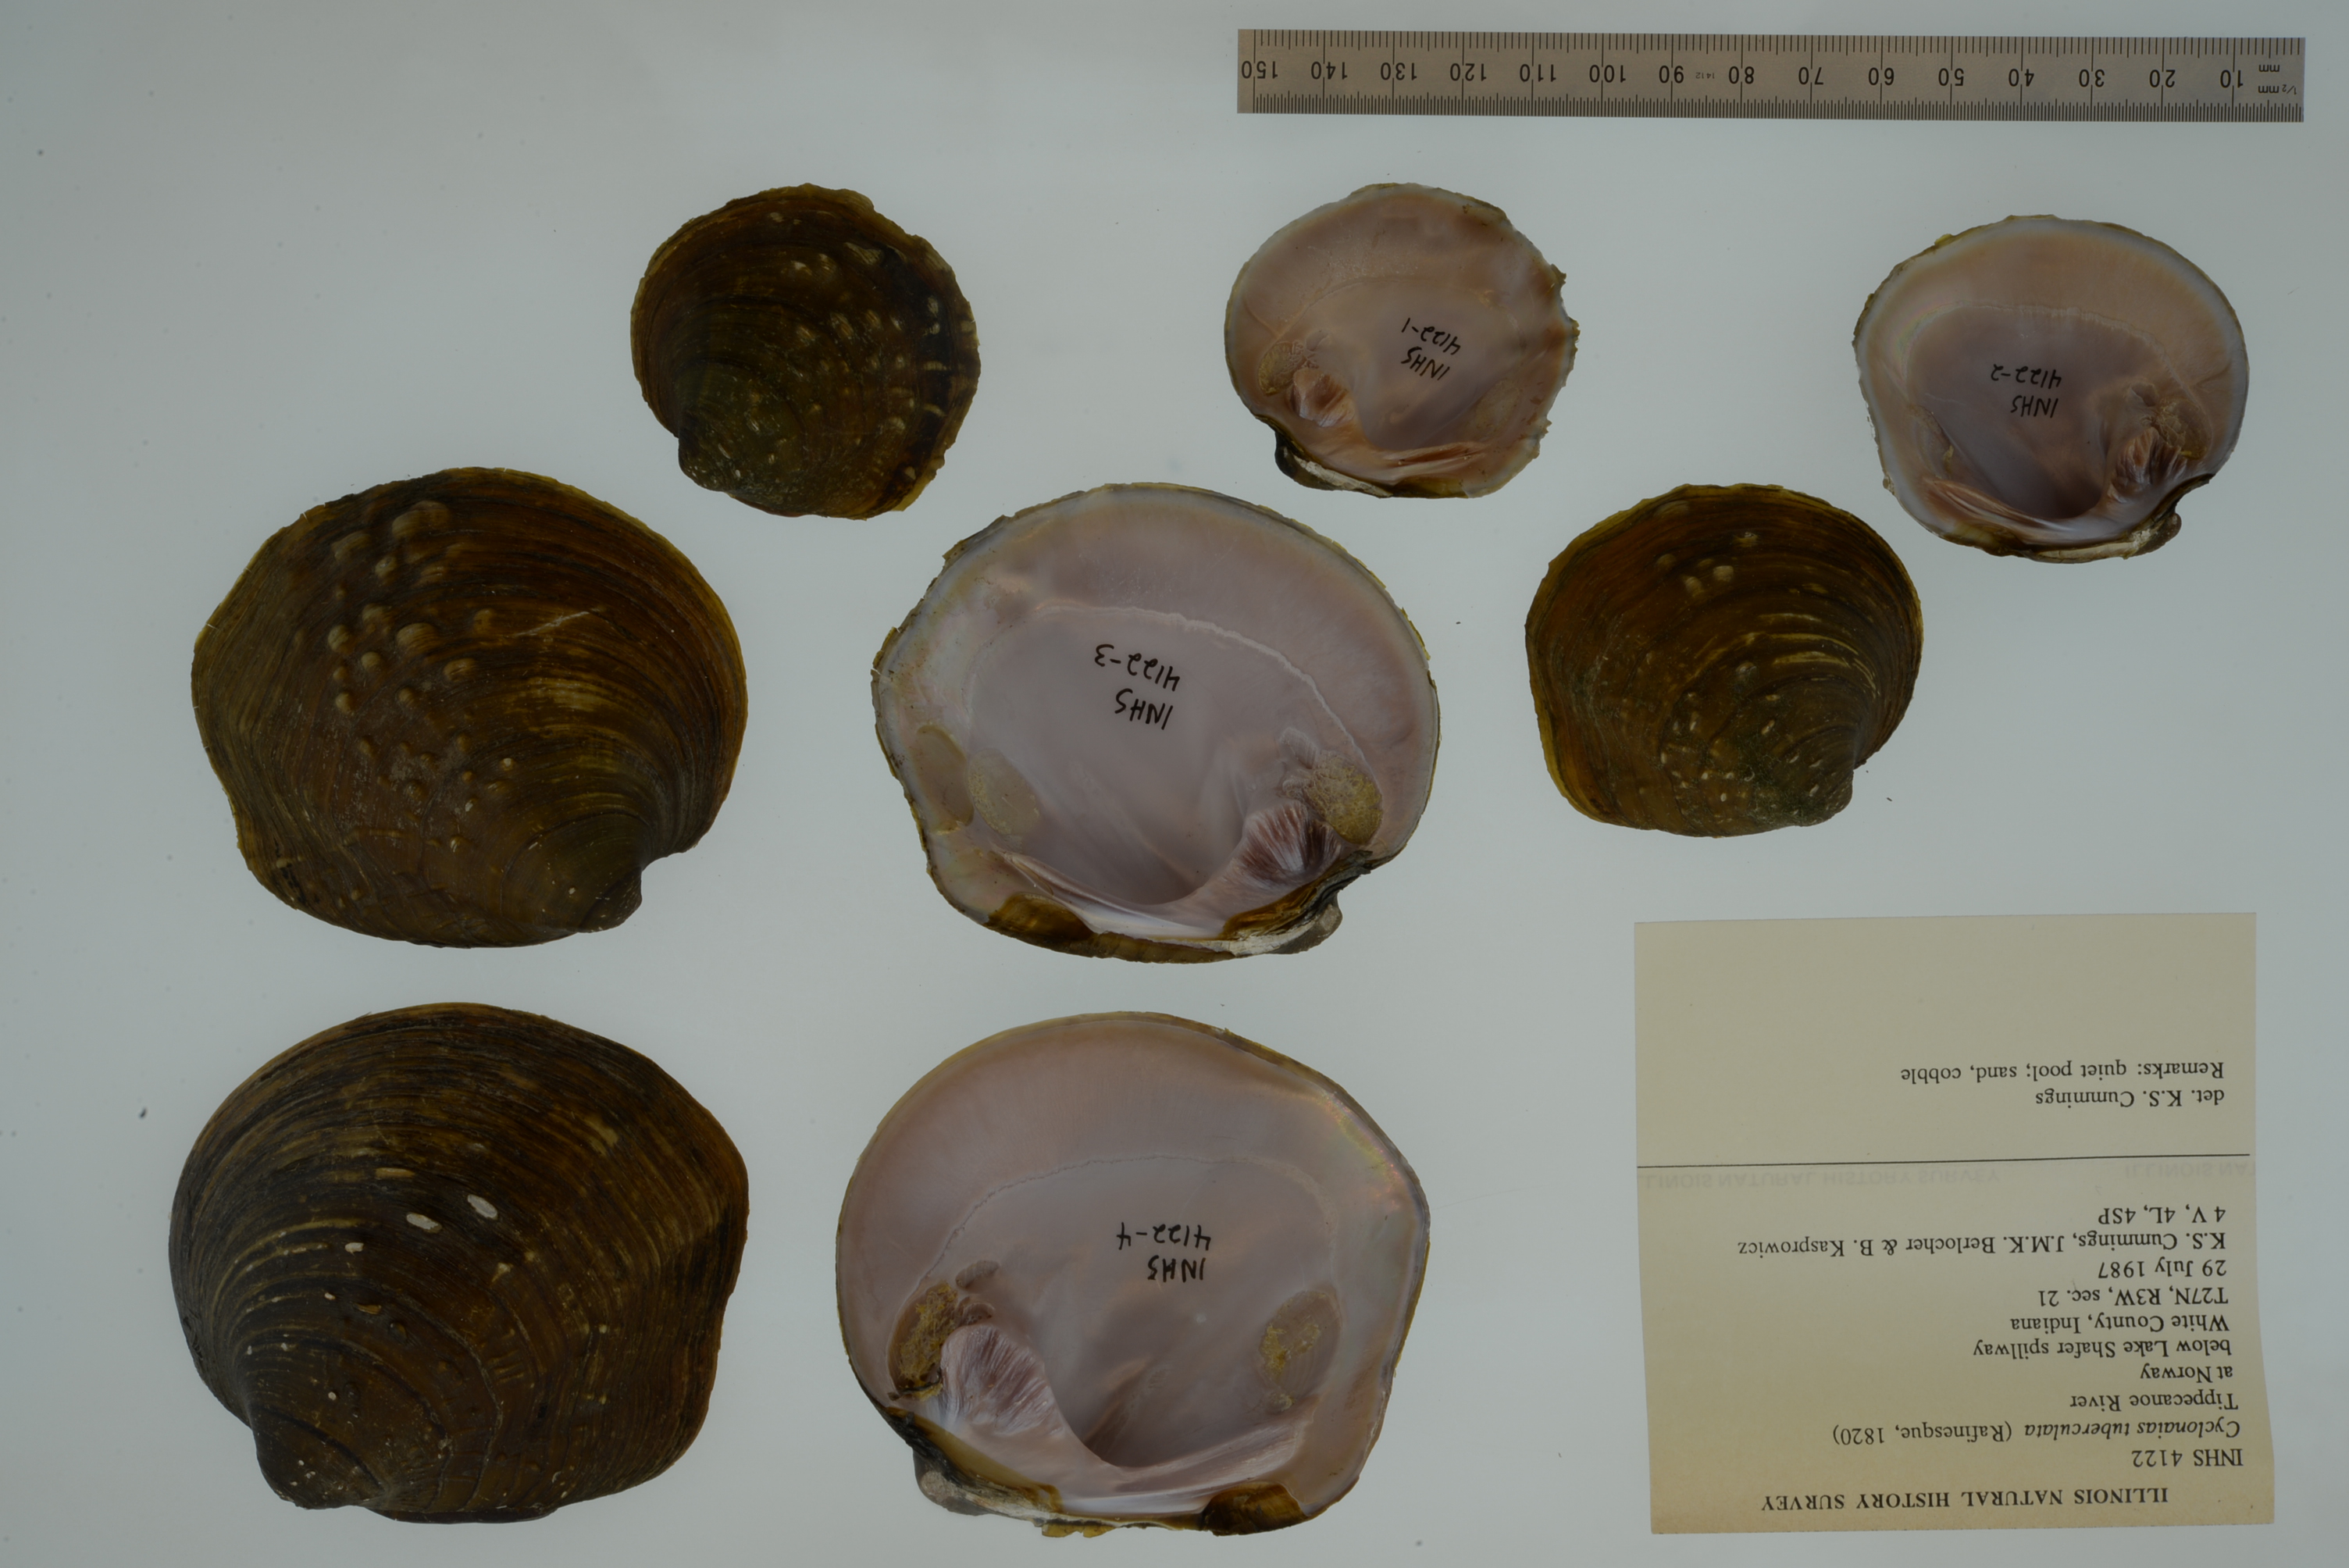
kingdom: Animalia
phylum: Mollusca
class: Bivalvia
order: Unionida
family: Unionidae
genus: Cyclonaias
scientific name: Cyclonaias tuberculata
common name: Purple wartyback
